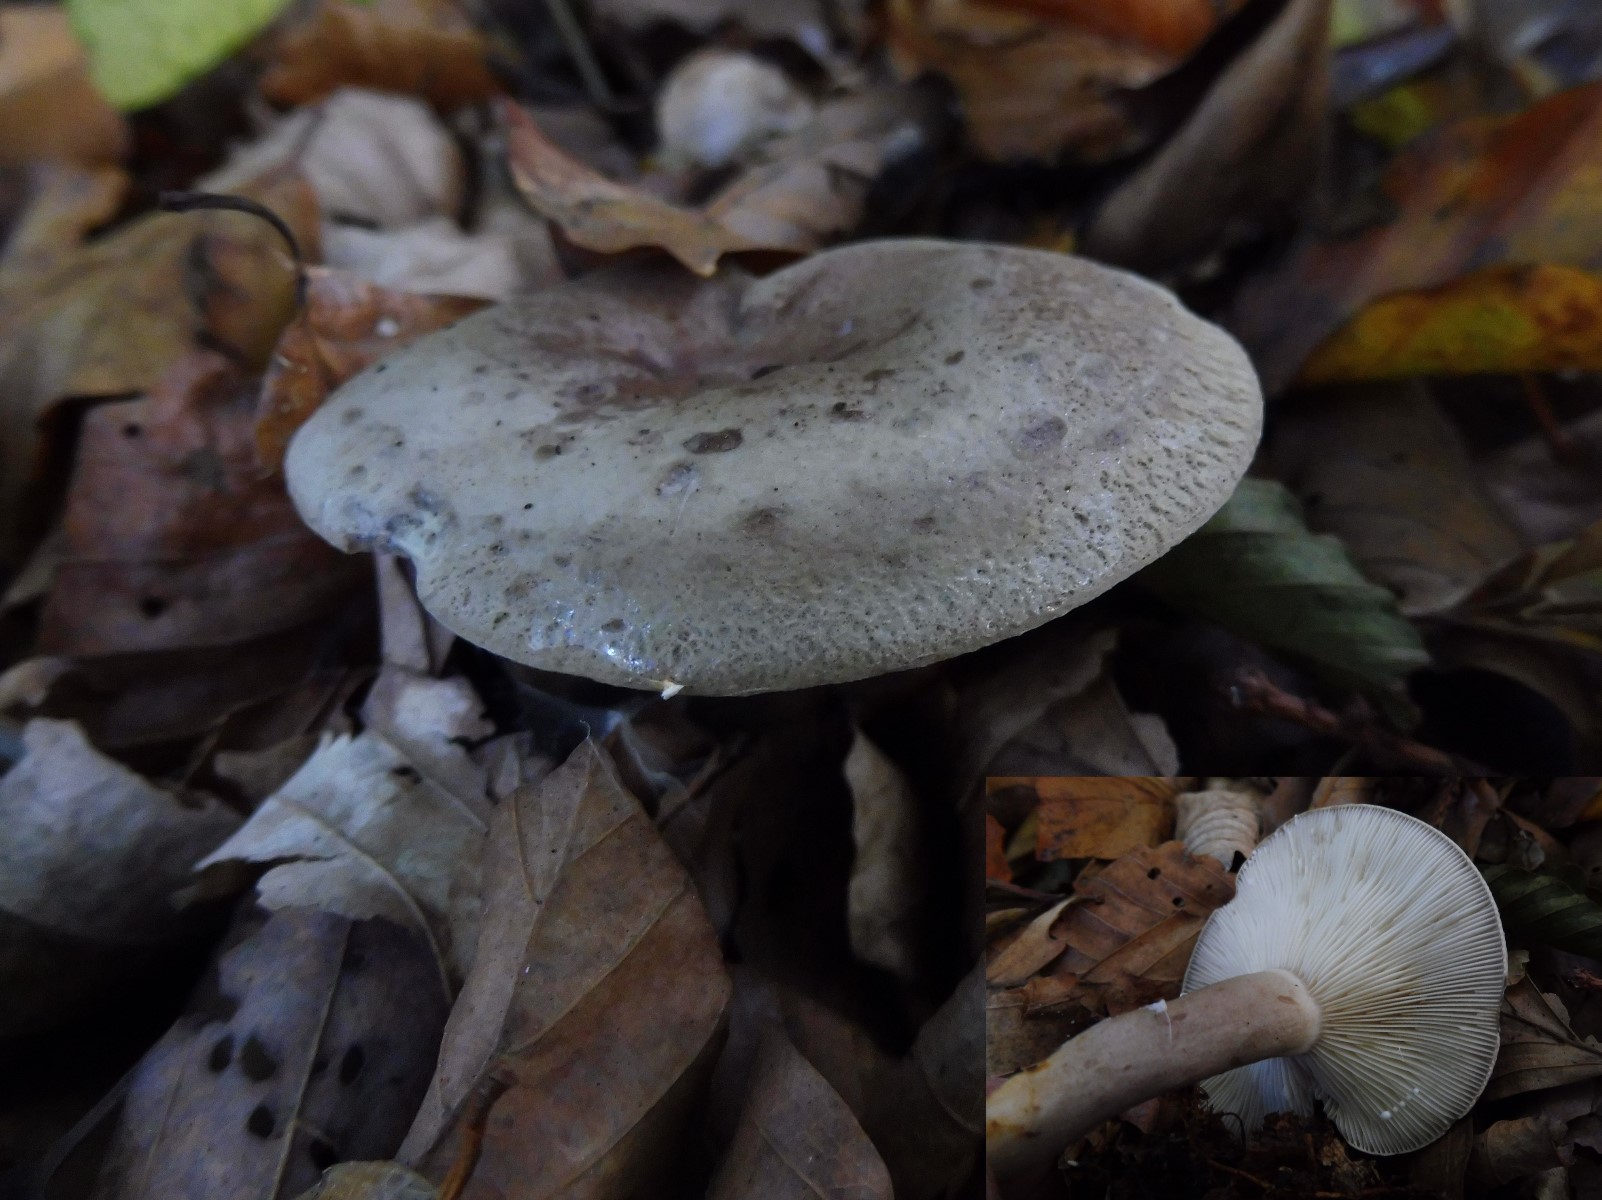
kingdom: Fungi
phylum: Basidiomycota
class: Agaricomycetes
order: Russulales
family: Russulaceae
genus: Lactarius
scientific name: Lactarius blennius
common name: dråbeplettet mælkehat
